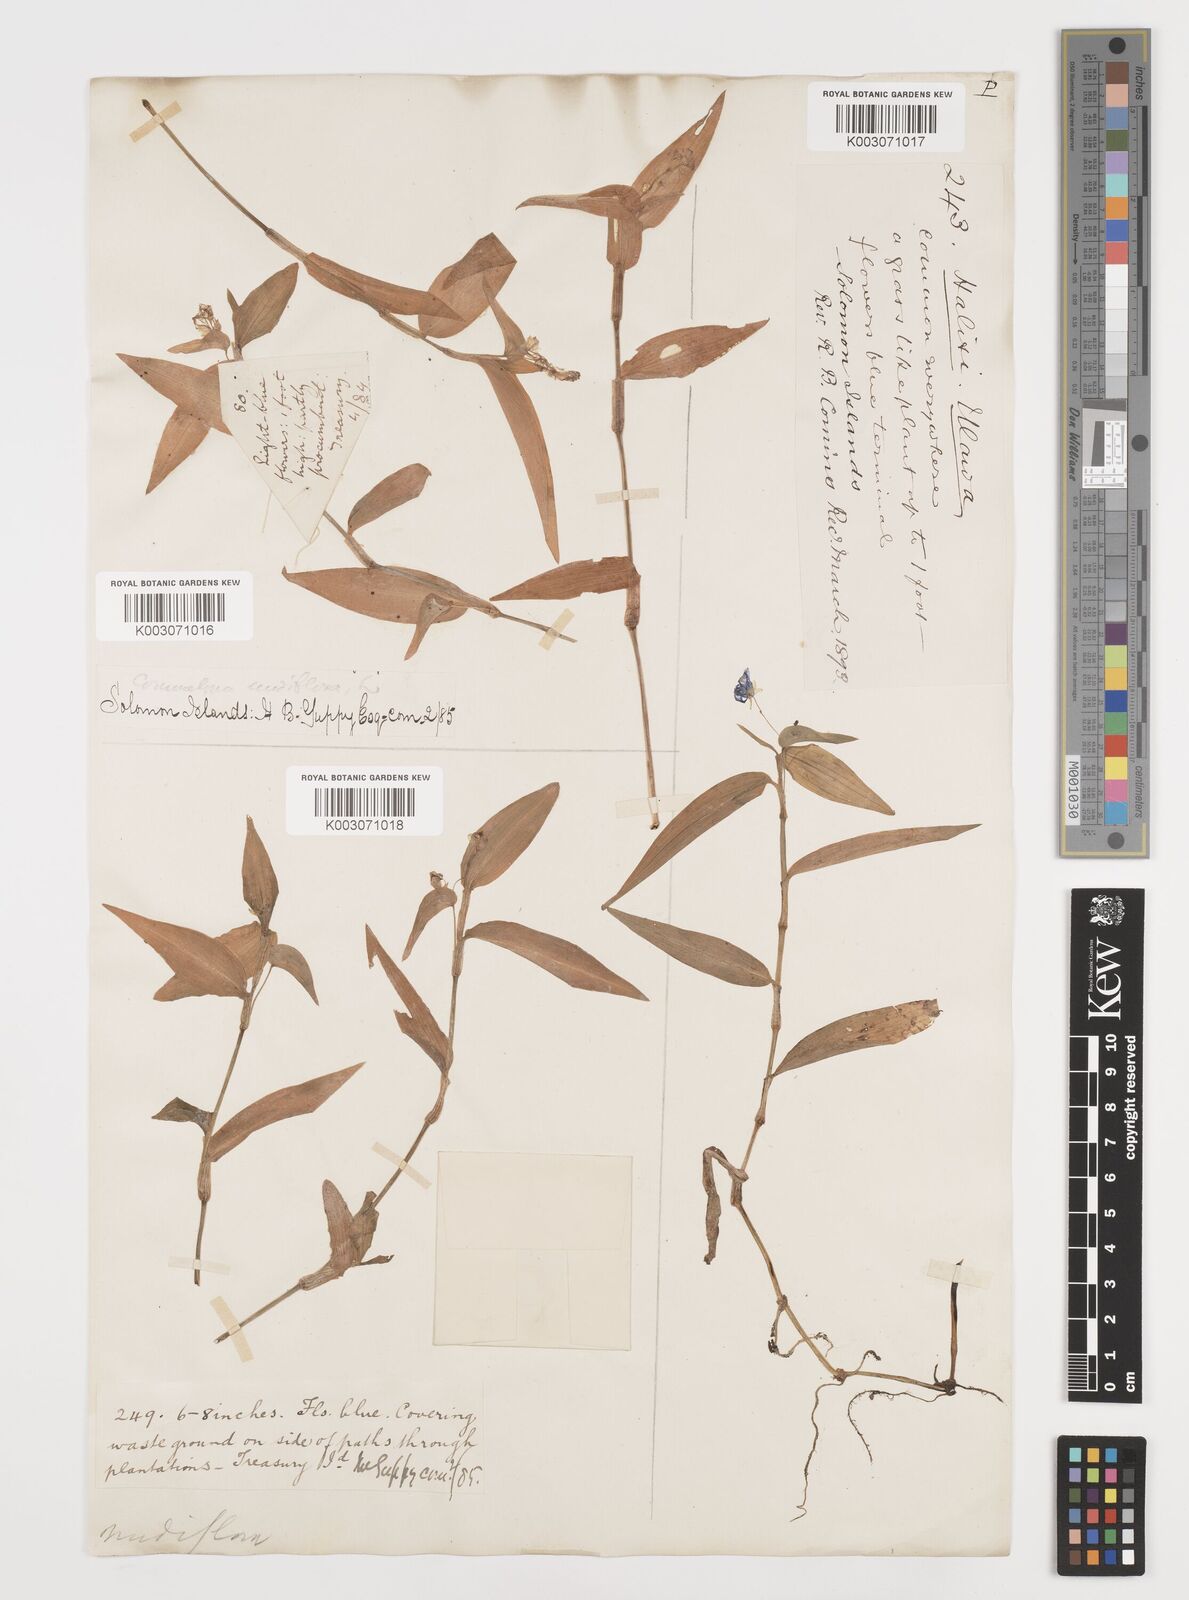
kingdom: Plantae
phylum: Tracheophyta
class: Liliopsida
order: Commelinales
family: Commelinaceae
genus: Commelina
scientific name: Commelina diffusa
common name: Climbing dayflower
